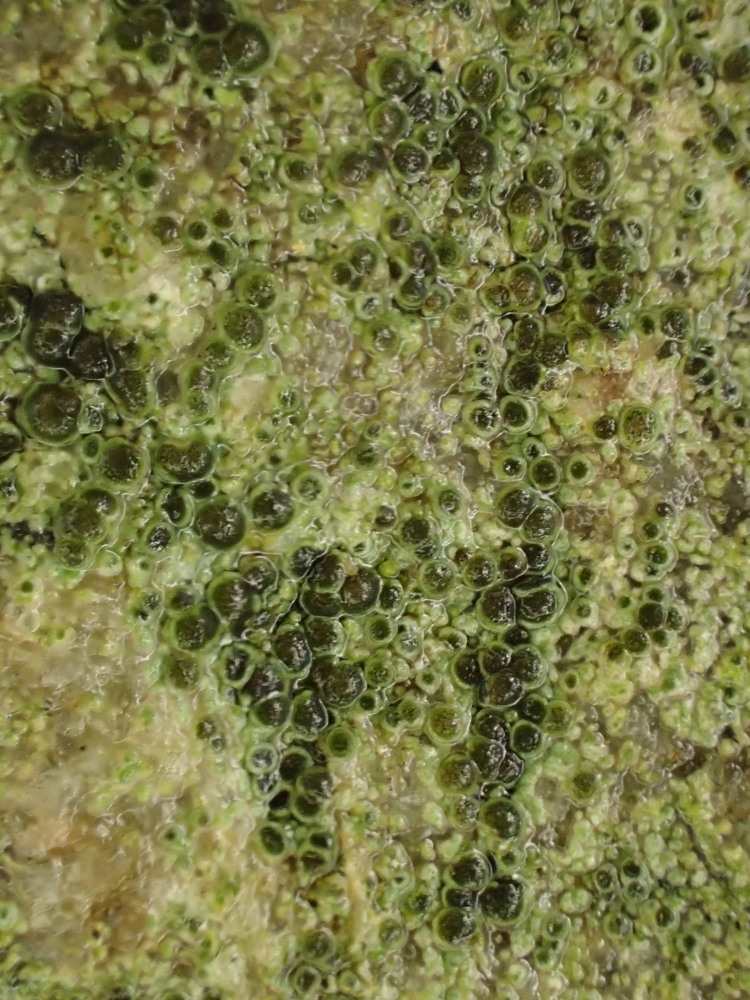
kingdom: Fungi
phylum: Ascomycota
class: Lecanoromycetes
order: Caliciales
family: Physciaceae
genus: Rinodina
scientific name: Rinodina oleae
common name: kyst-knaplav
